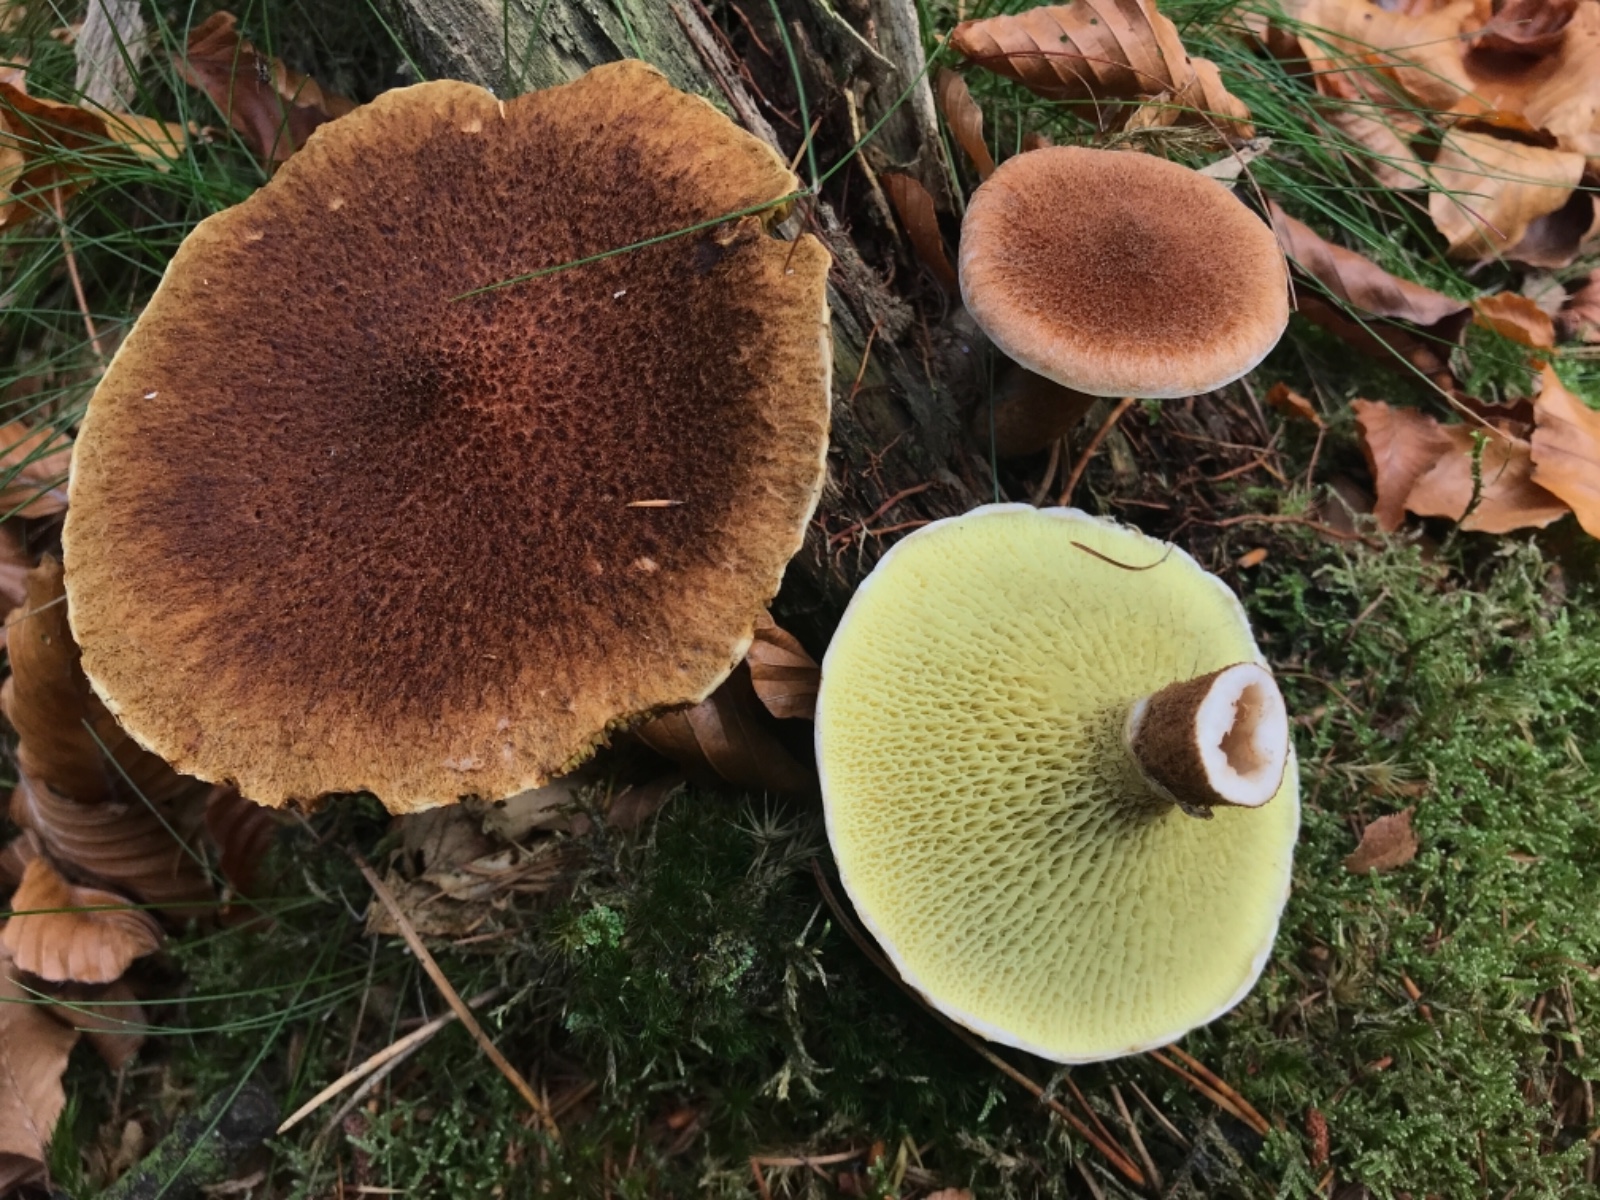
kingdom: Fungi
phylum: Basidiomycota
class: Agaricomycetes
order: Boletales
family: Suillaceae
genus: Suillus
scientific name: Suillus cavipes
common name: hulstokket slimrørhat
